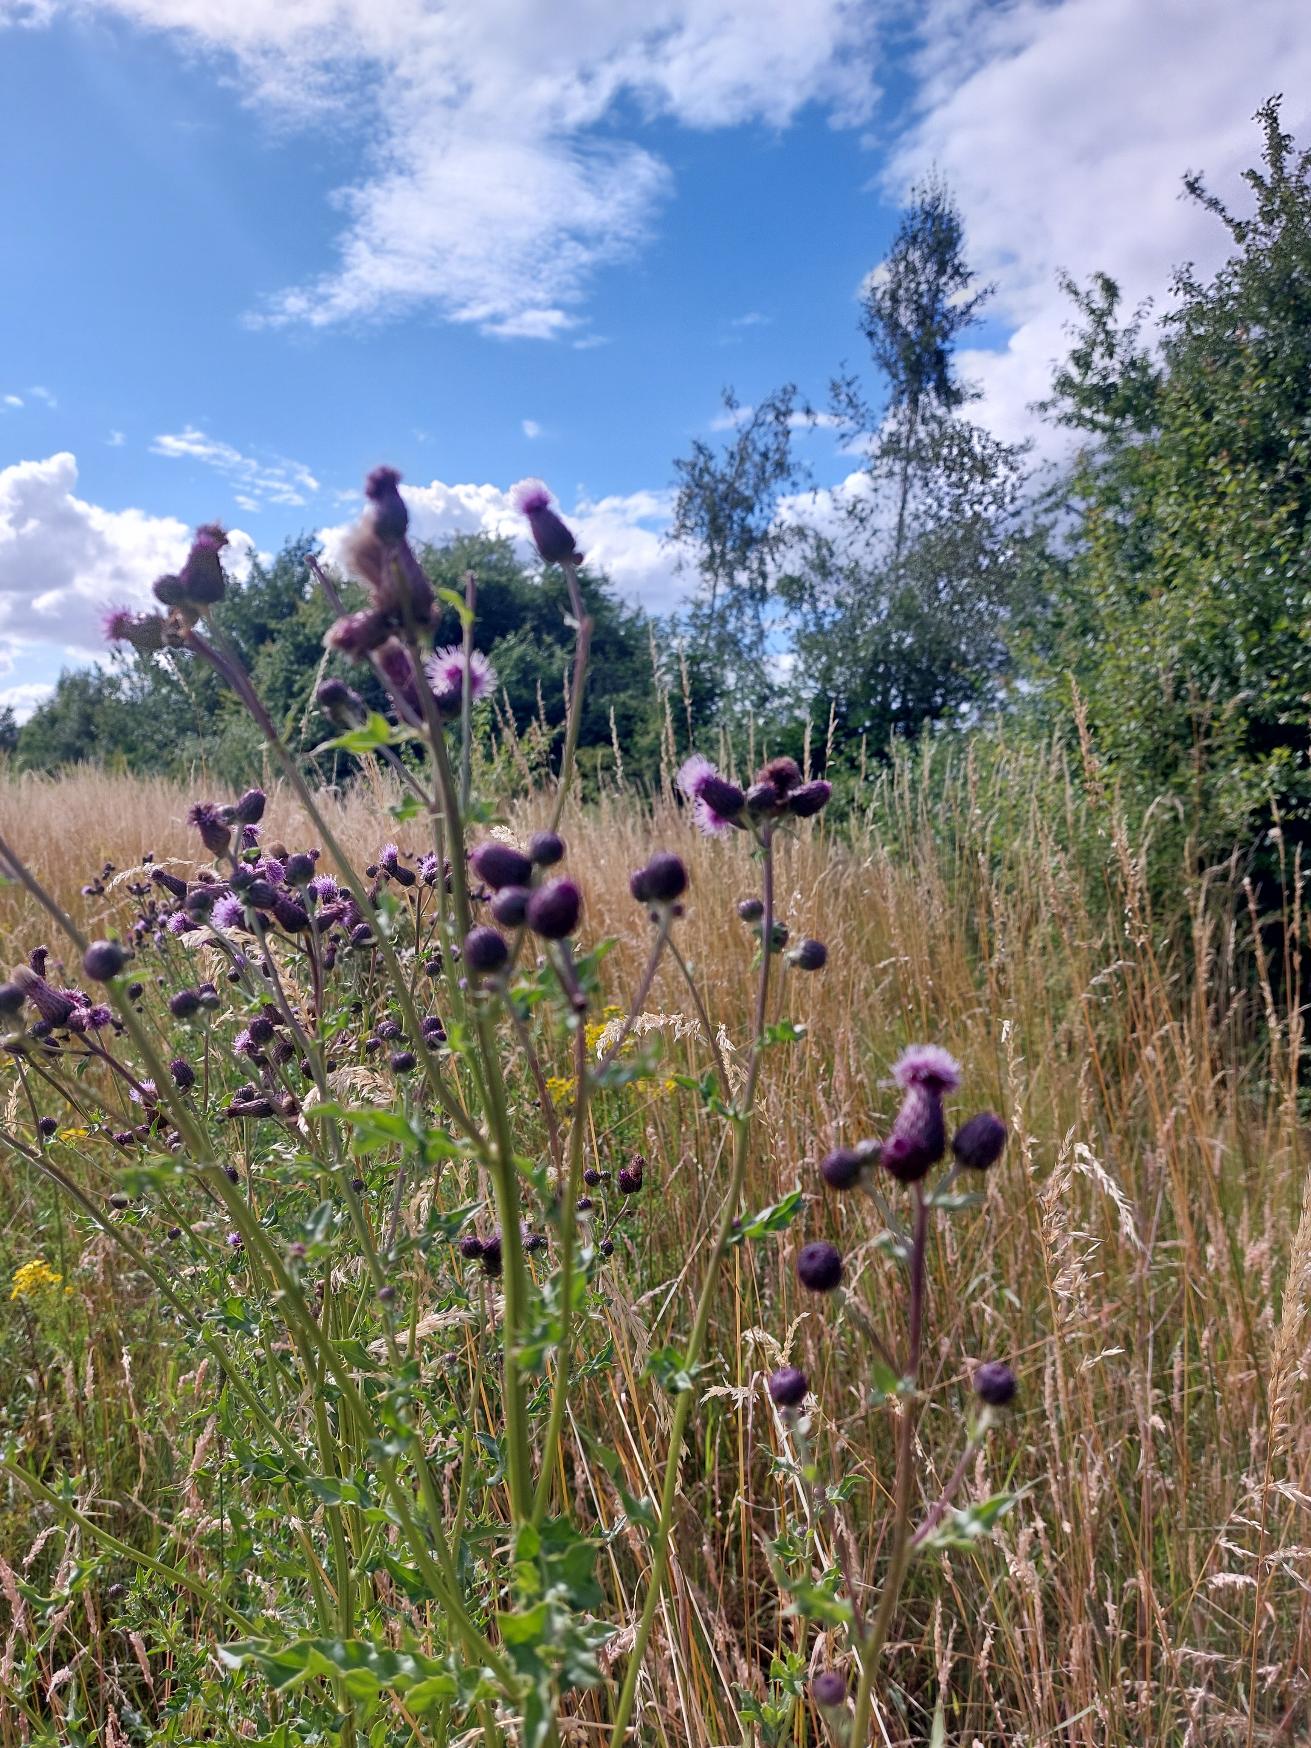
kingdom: Plantae
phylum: Tracheophyta
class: Magnoliopsida
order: Asterales
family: Asteraceae
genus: Cirsium
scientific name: Cirsium arvense
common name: Ager-tidsel
